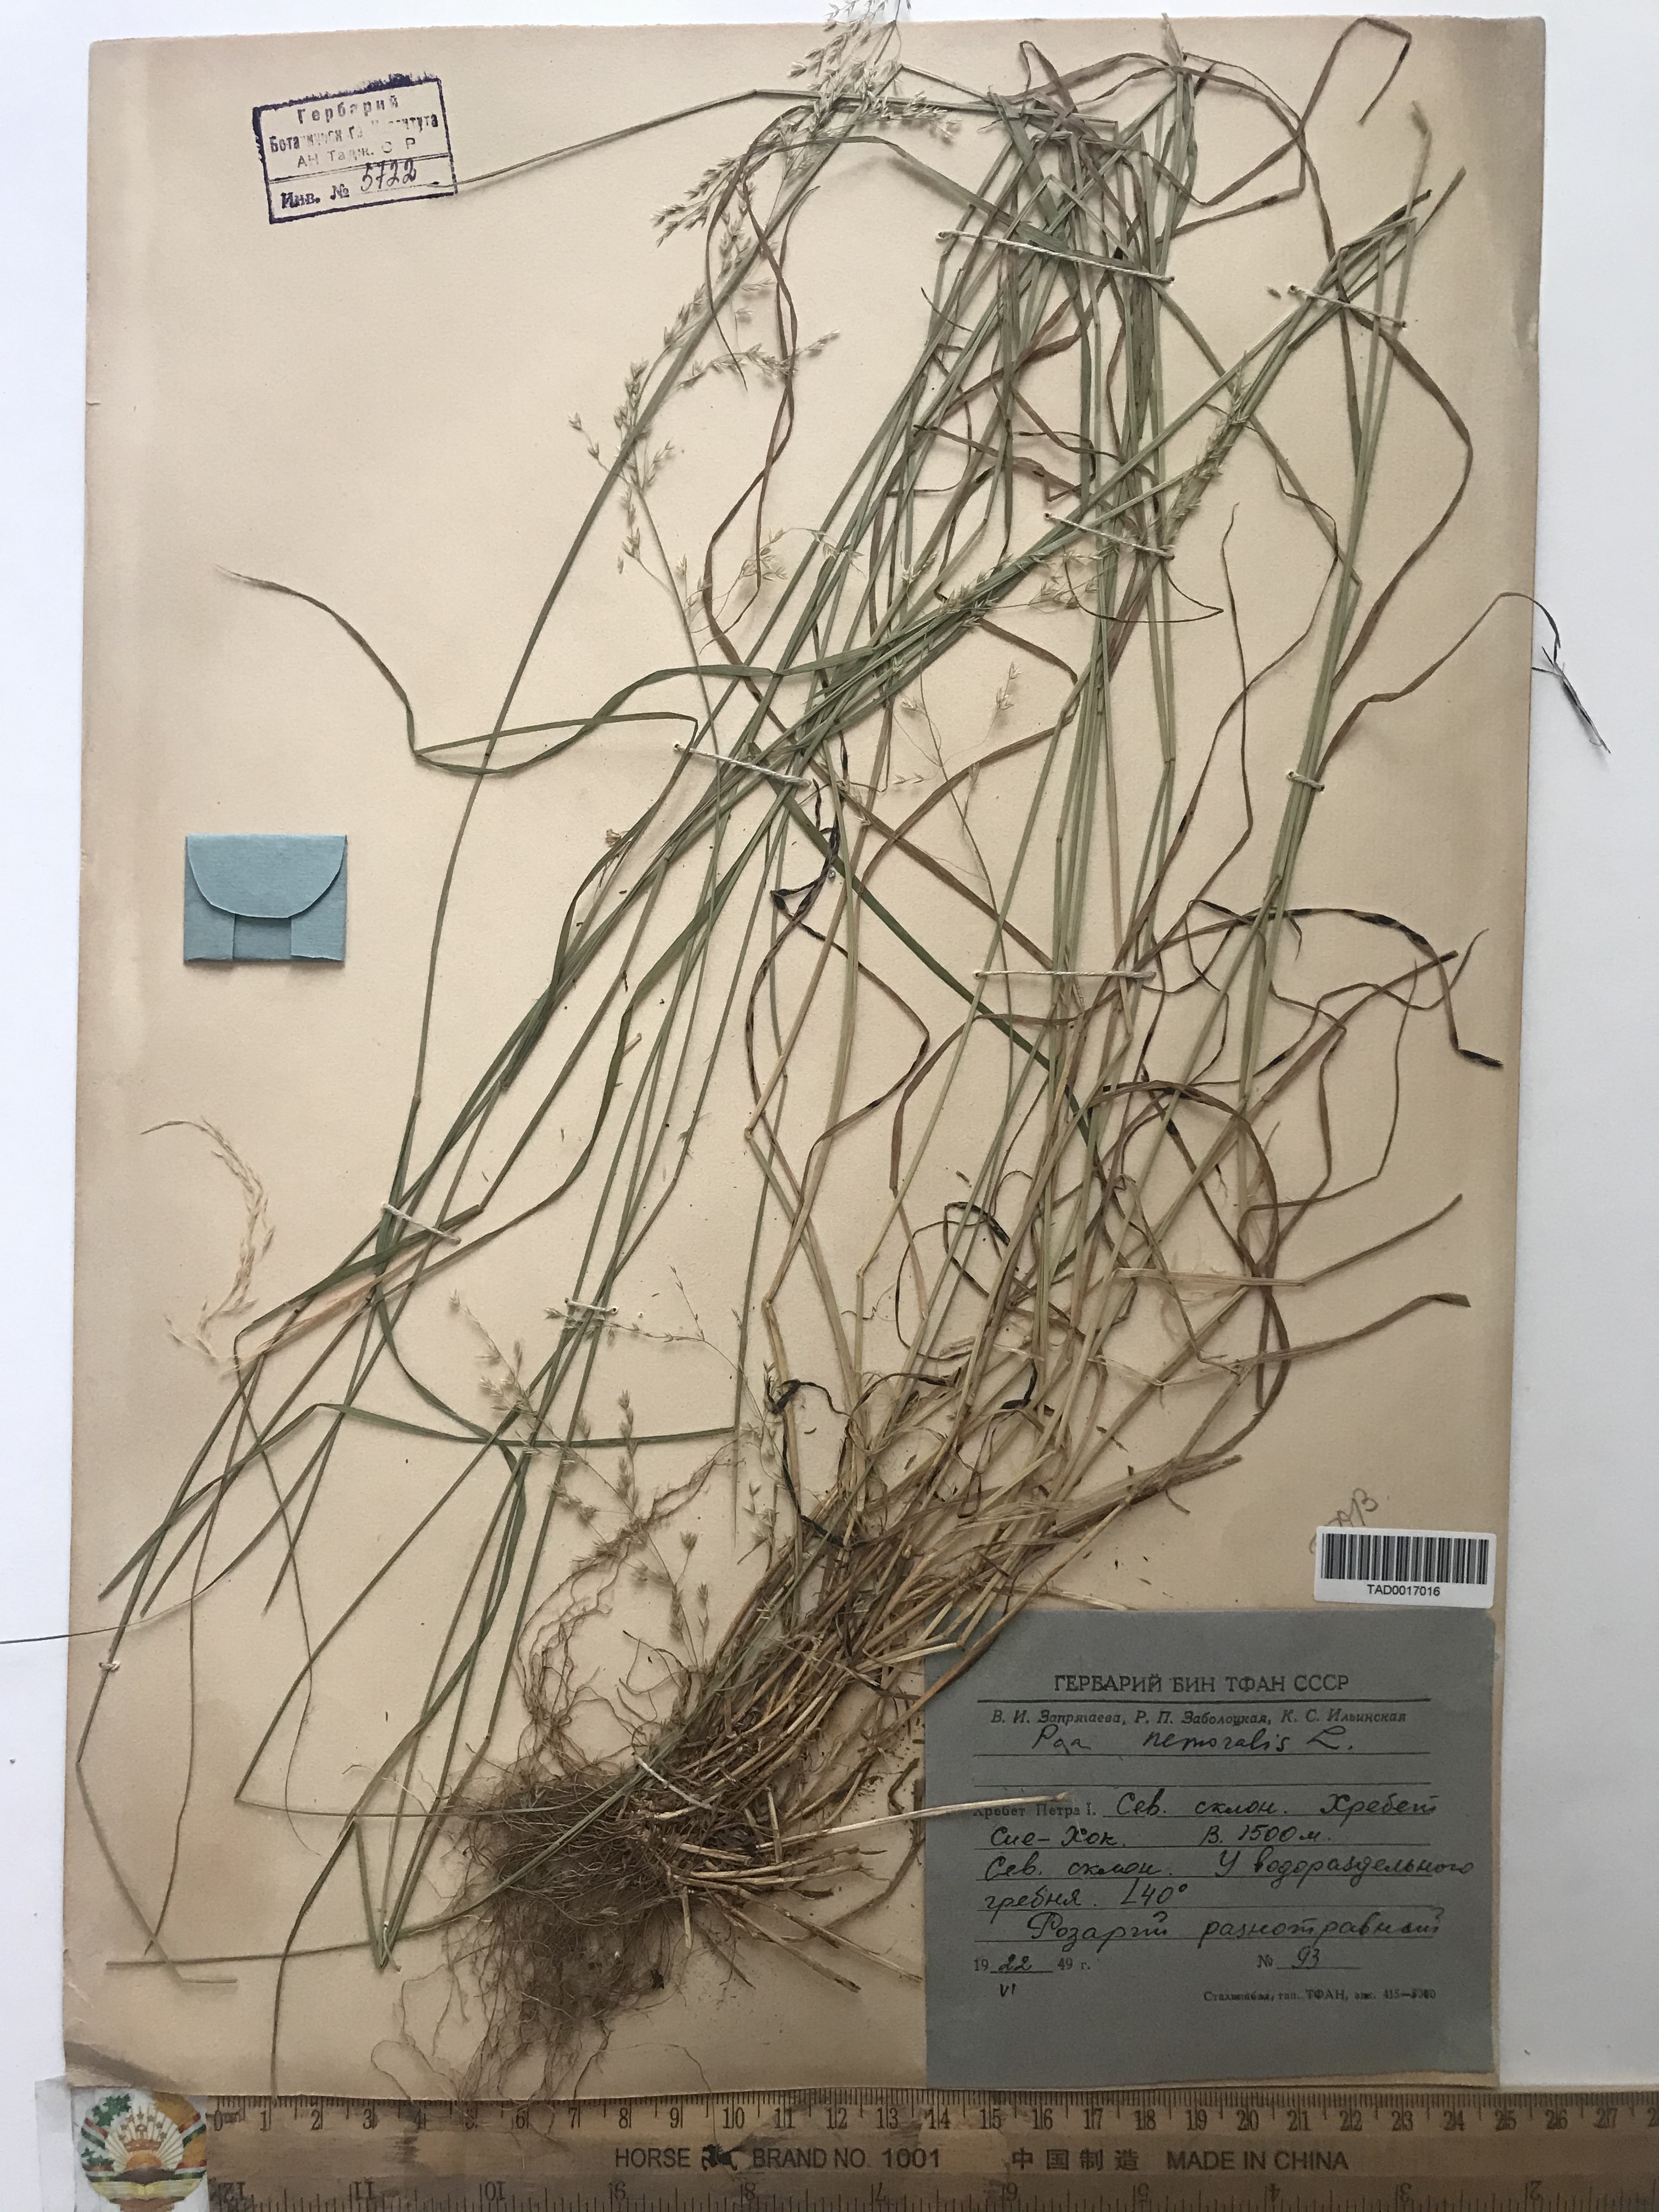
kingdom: Plantae
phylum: Tracheophyta
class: Liliopsida
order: Poales
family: Poaceae
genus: Poa
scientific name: Poa nemoralis
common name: Wood bluegrass
